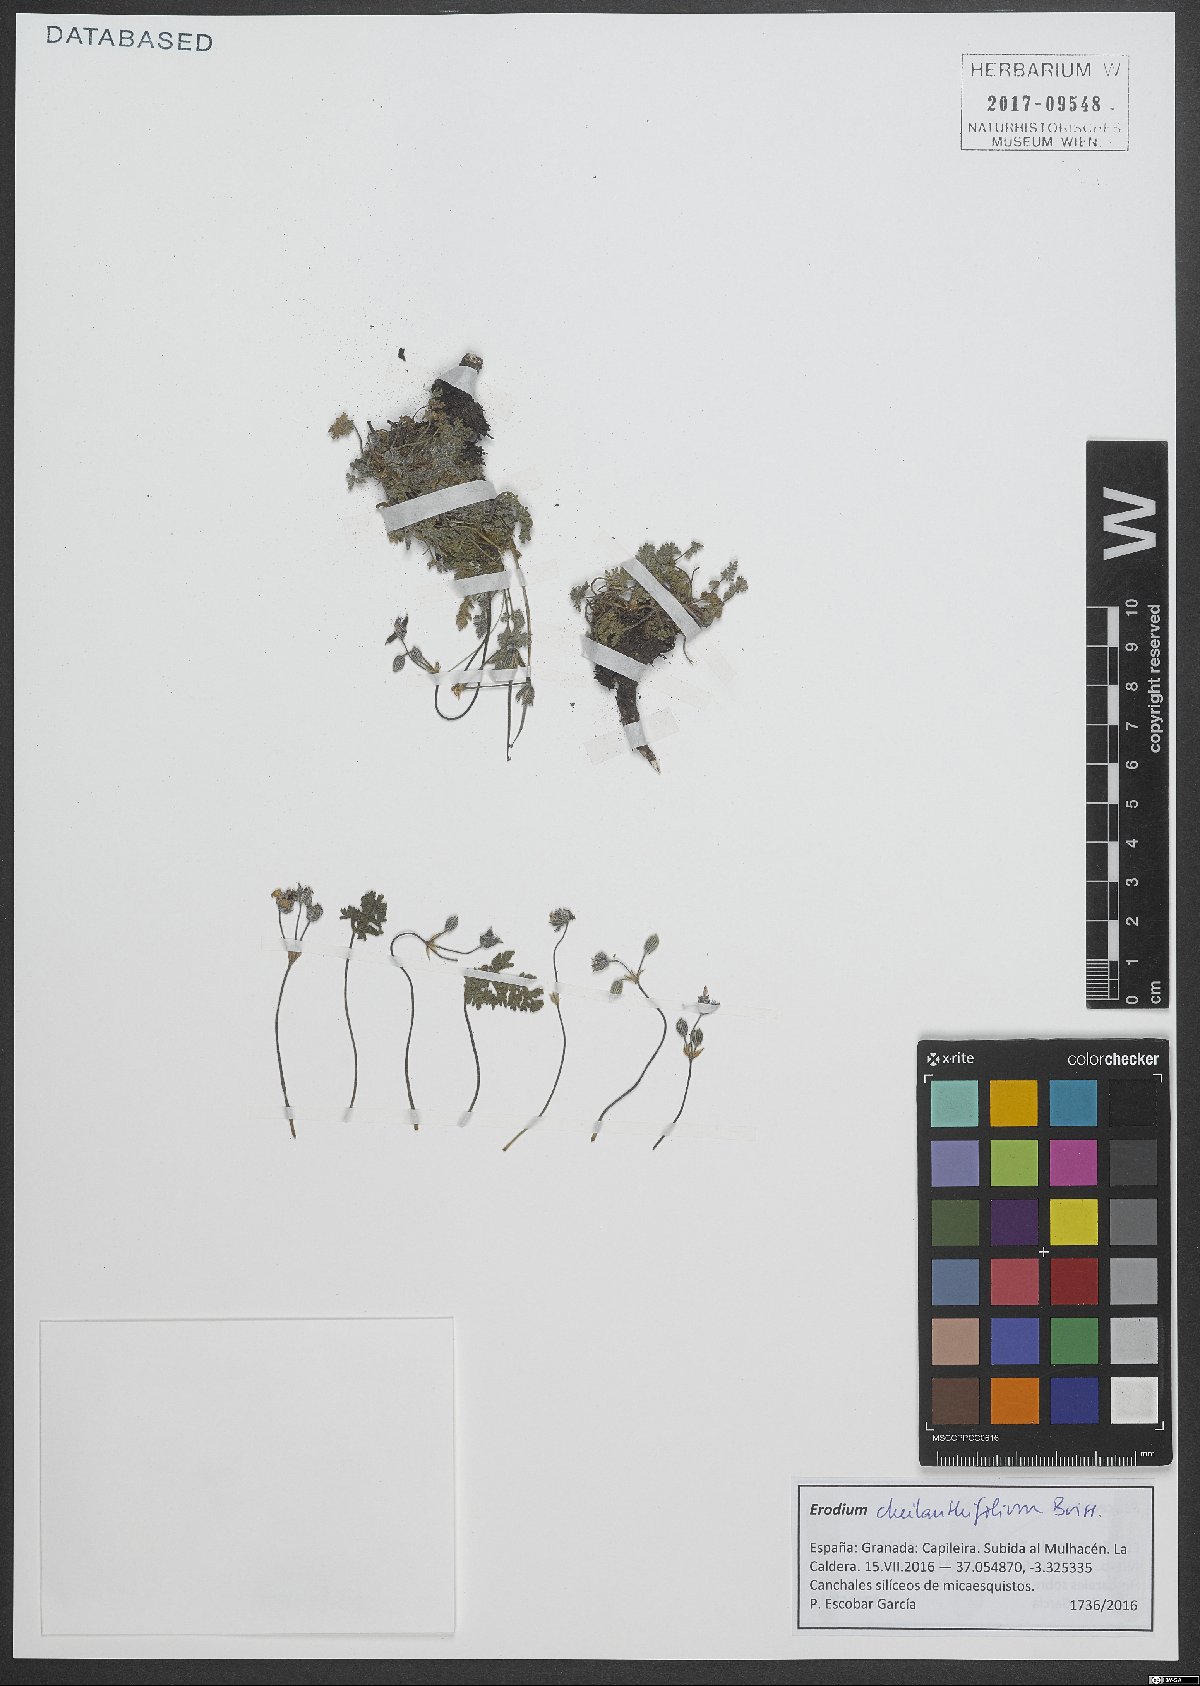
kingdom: Plantae
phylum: Tracheophyta
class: Magnoliopsida
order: Geraniales
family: Geraniaceae
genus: Erodium
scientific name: Erodium cheilanthifolium
